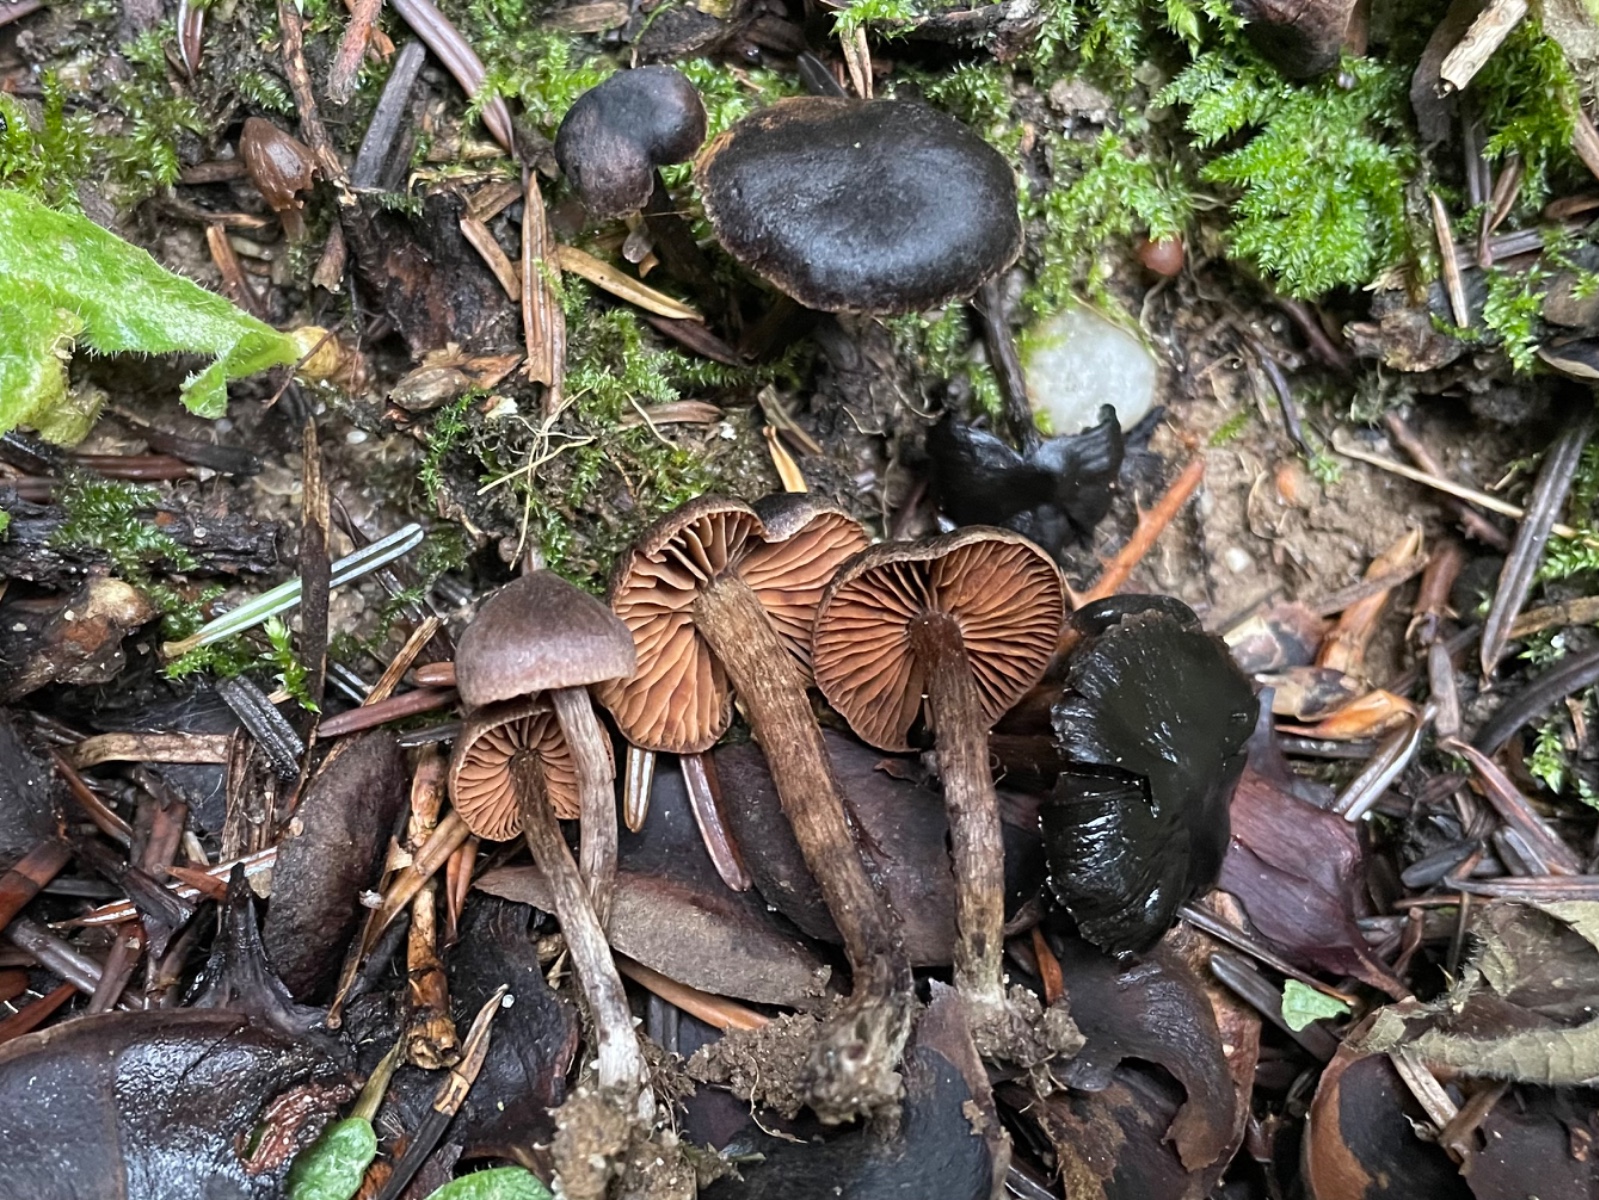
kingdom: Fungi
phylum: Basidiomycota
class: Agaricomycetes
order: Agaricales
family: Cortinariaceae
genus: Cortinarius
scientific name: Cortinarius
